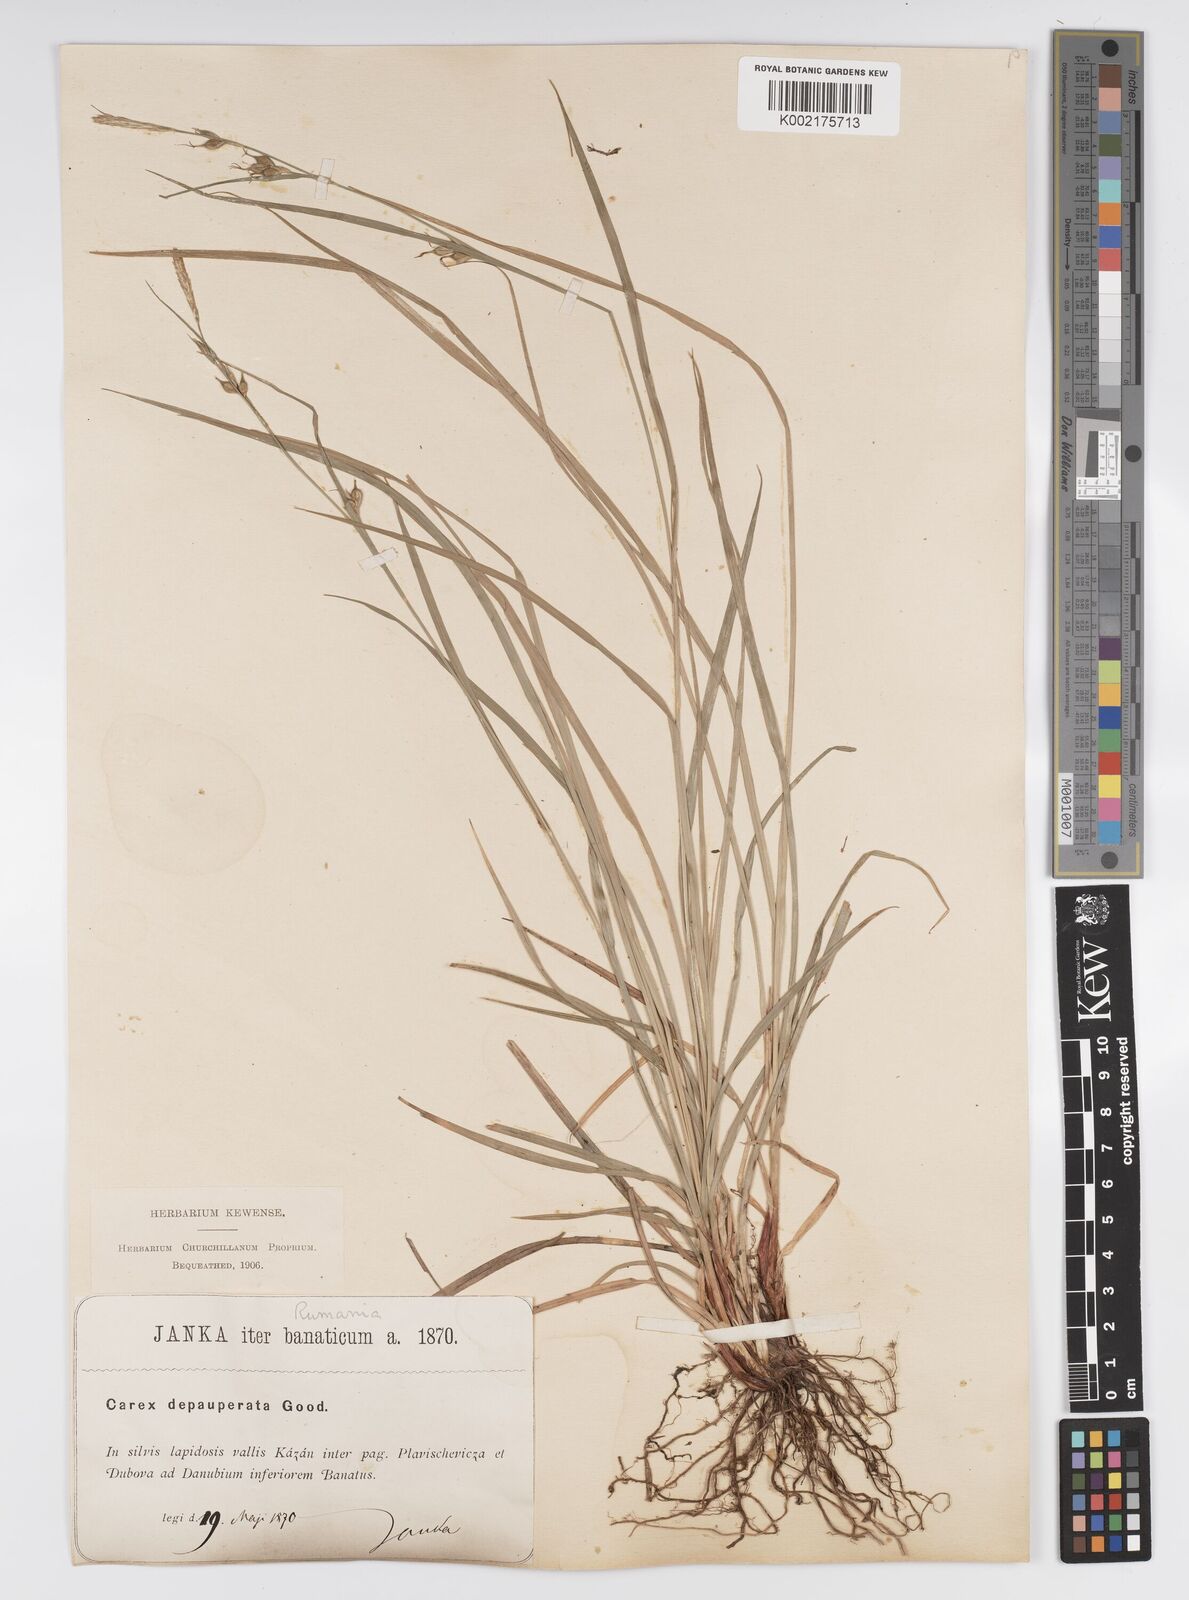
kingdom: Plantae
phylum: Tracheophyta
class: Liliopsida
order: Poales
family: Cyperaceae
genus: Carex
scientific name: Carex
